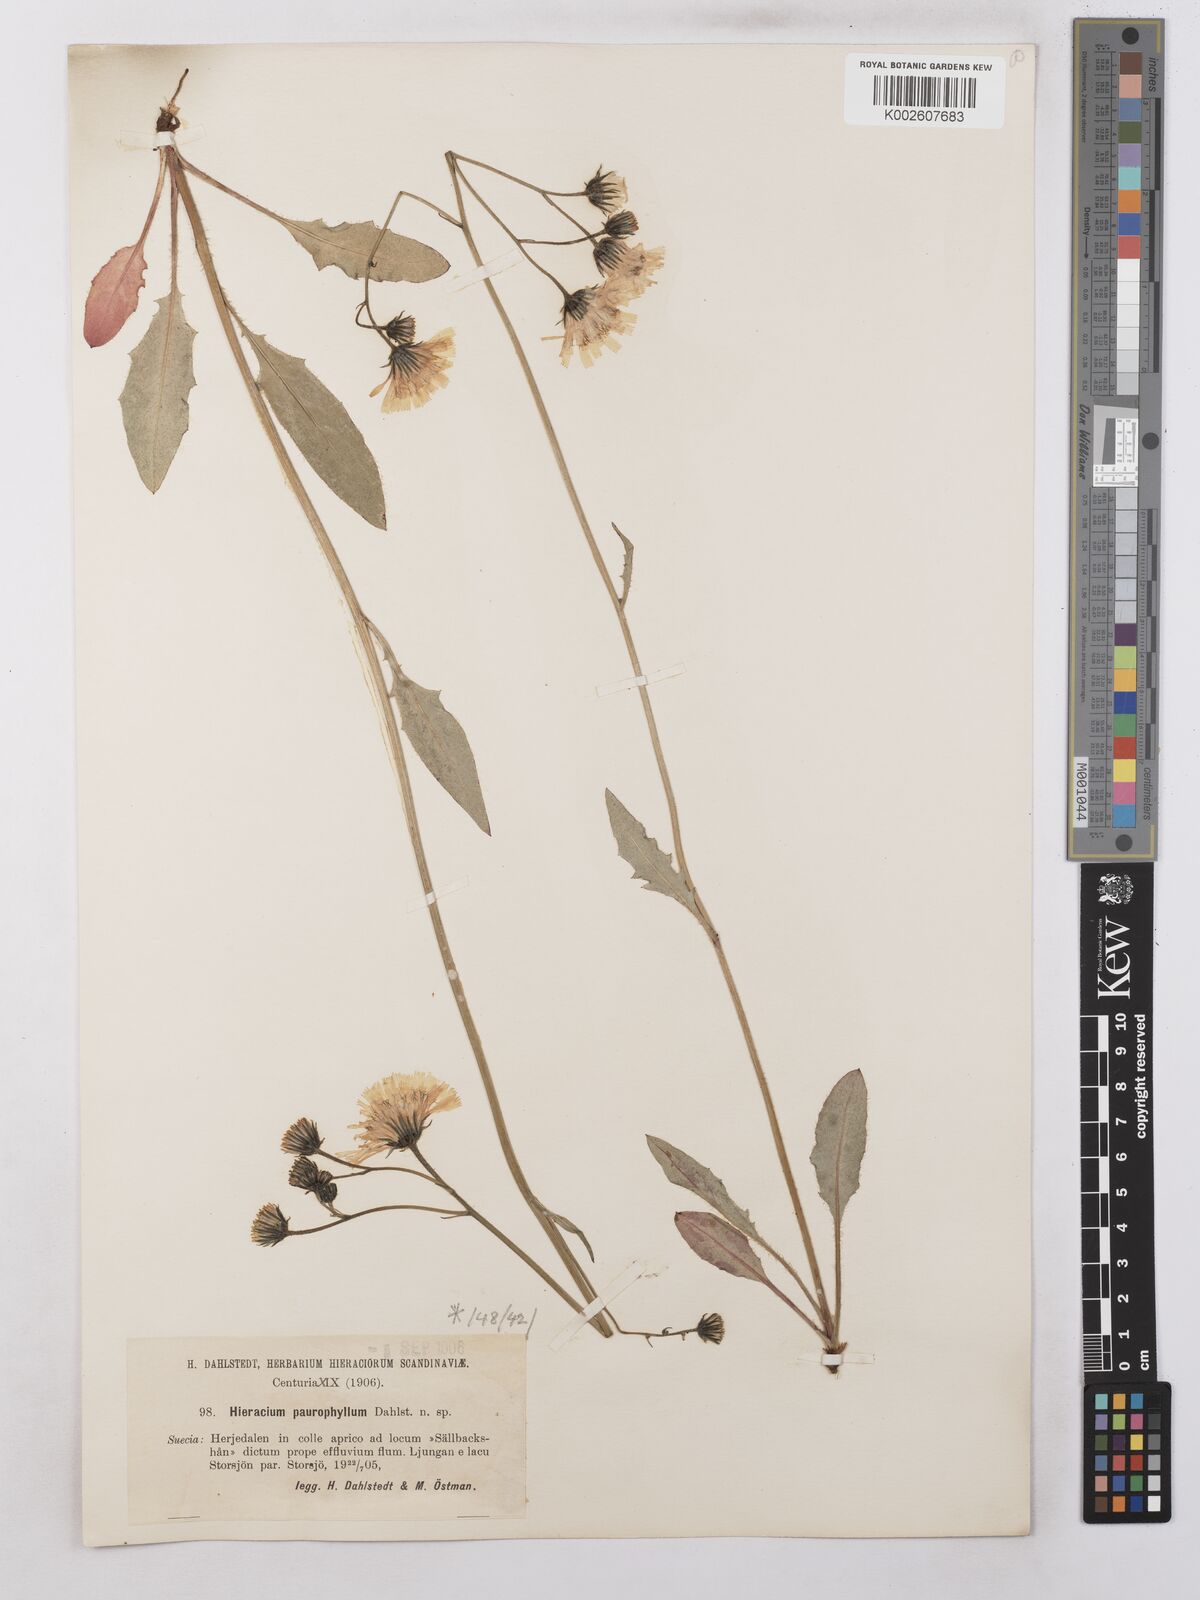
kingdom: Plantae
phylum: Tracheophyta
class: Magnoliopsida
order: Asterales
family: Asteraceae
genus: Hieracium
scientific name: Hieracium subramosum
